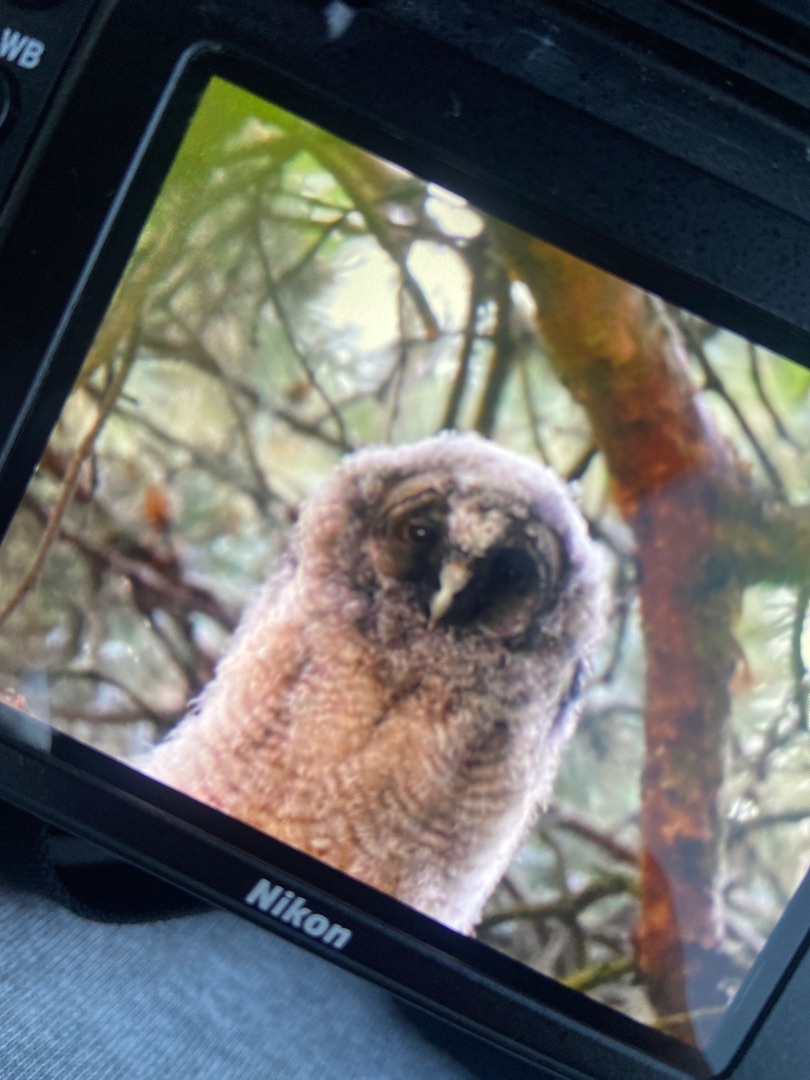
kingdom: Animalia
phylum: Chordata
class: Aves
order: Strigiformes
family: Strigidae
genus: Asio
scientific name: Asio otus
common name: Skovhornugle
